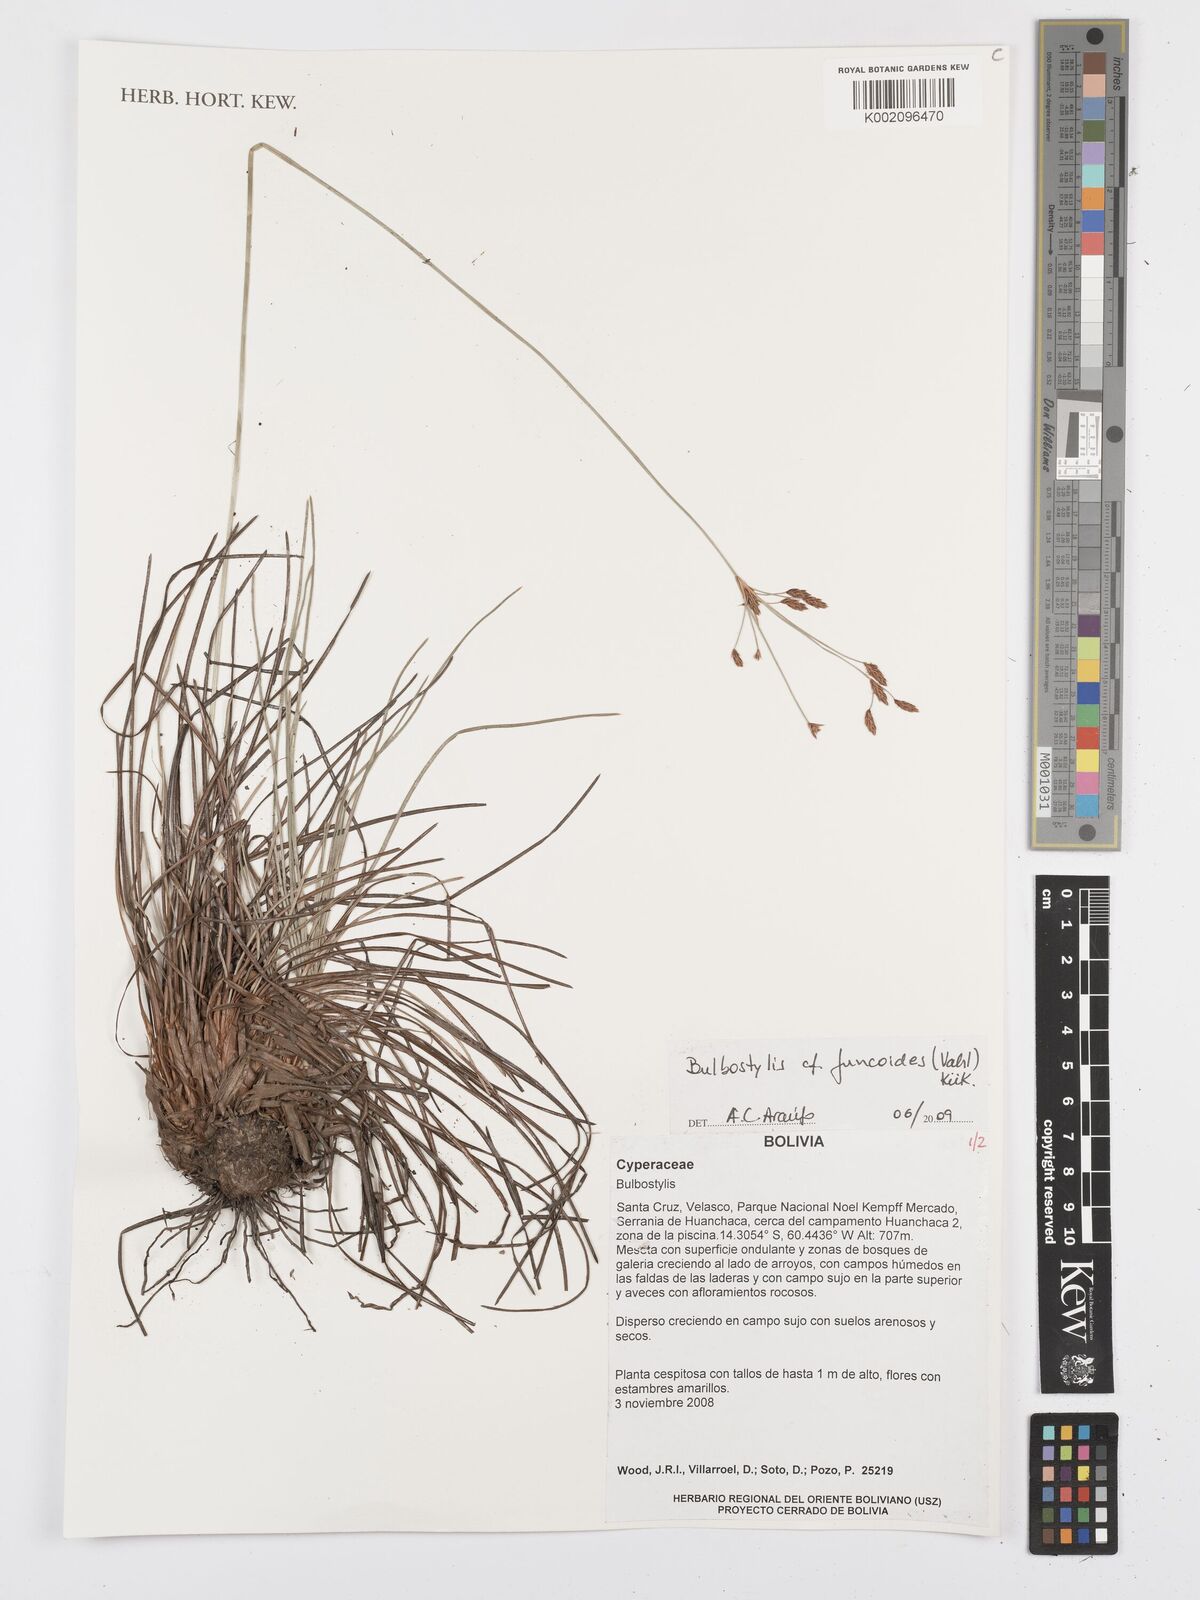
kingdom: Plantae
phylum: Tracheophyta
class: Liliopsida
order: Poales
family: Cyperaceae
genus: Bulbostylis
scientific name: Bulbostylis juncoides
